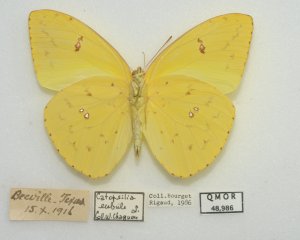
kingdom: Animalia
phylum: Arthropoda
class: Insecta
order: Lepidoptera
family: Pieridae
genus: Phoebis
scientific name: Phoebis sennae
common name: Cloudless Sulphur
